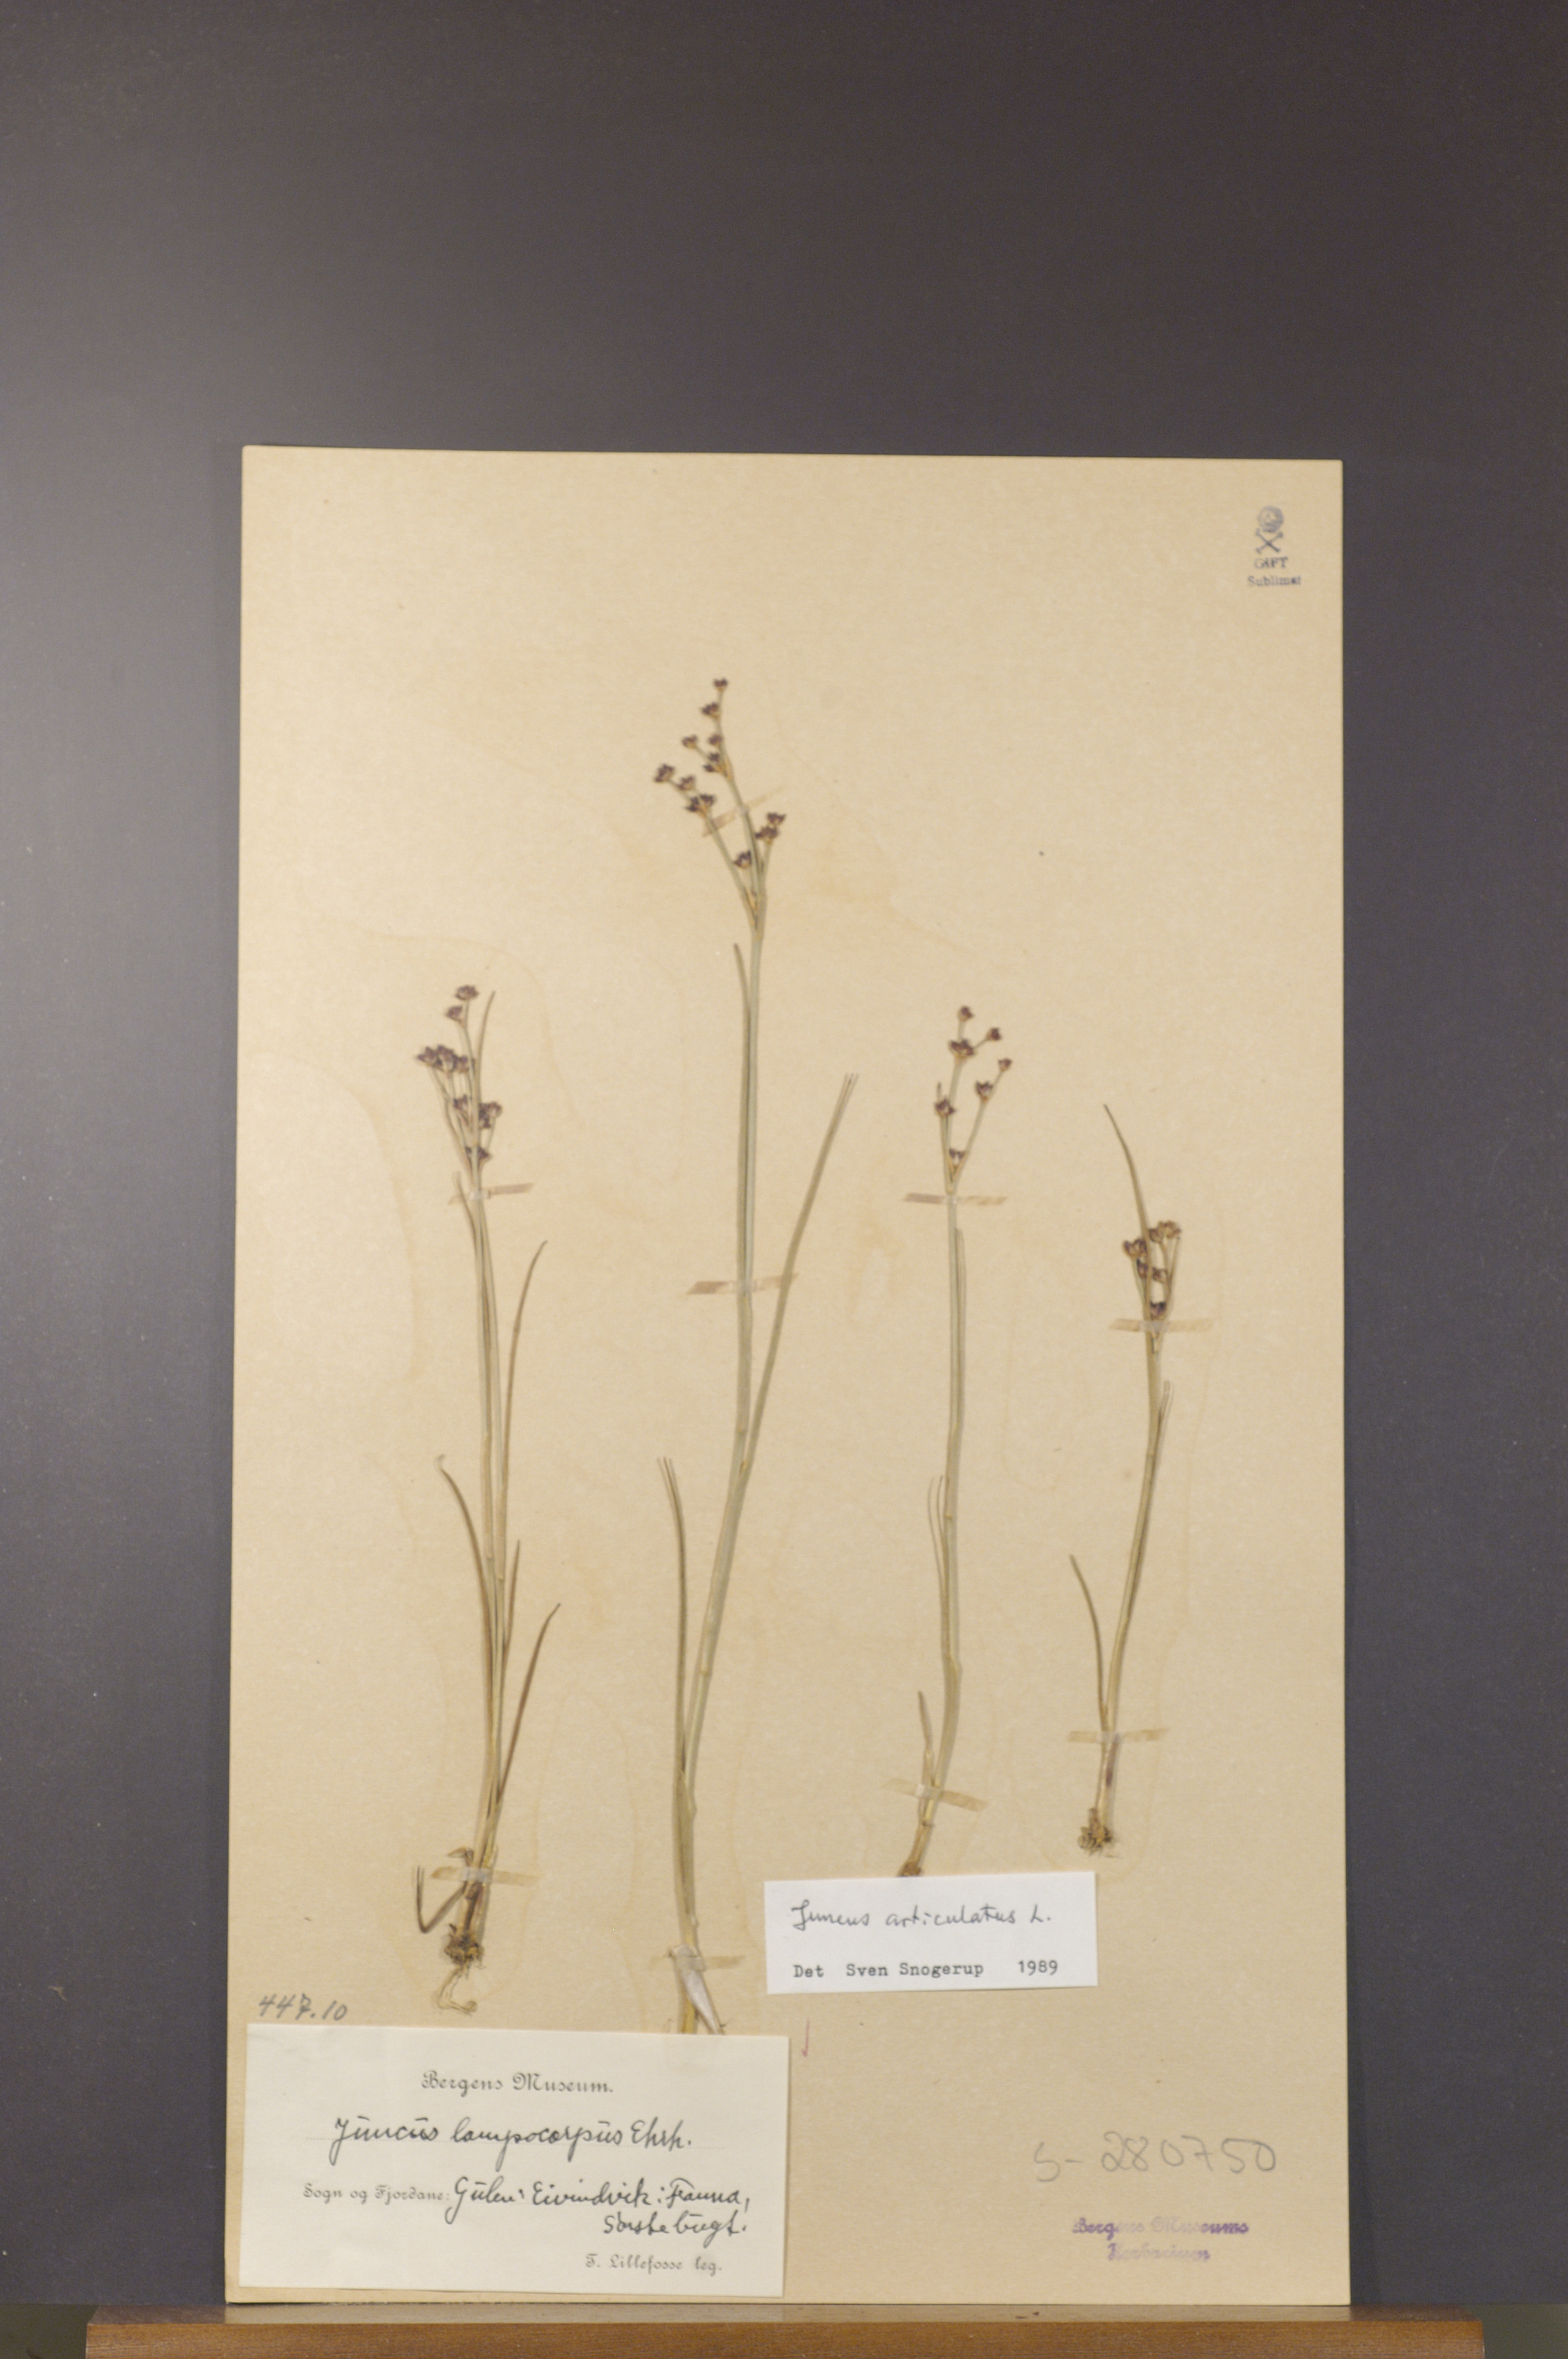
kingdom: Plantae
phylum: Tracheophyta
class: Liliopsida
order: Poales
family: Juncaceae
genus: Juncus
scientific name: Juncus articulatus
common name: Jointed rush
